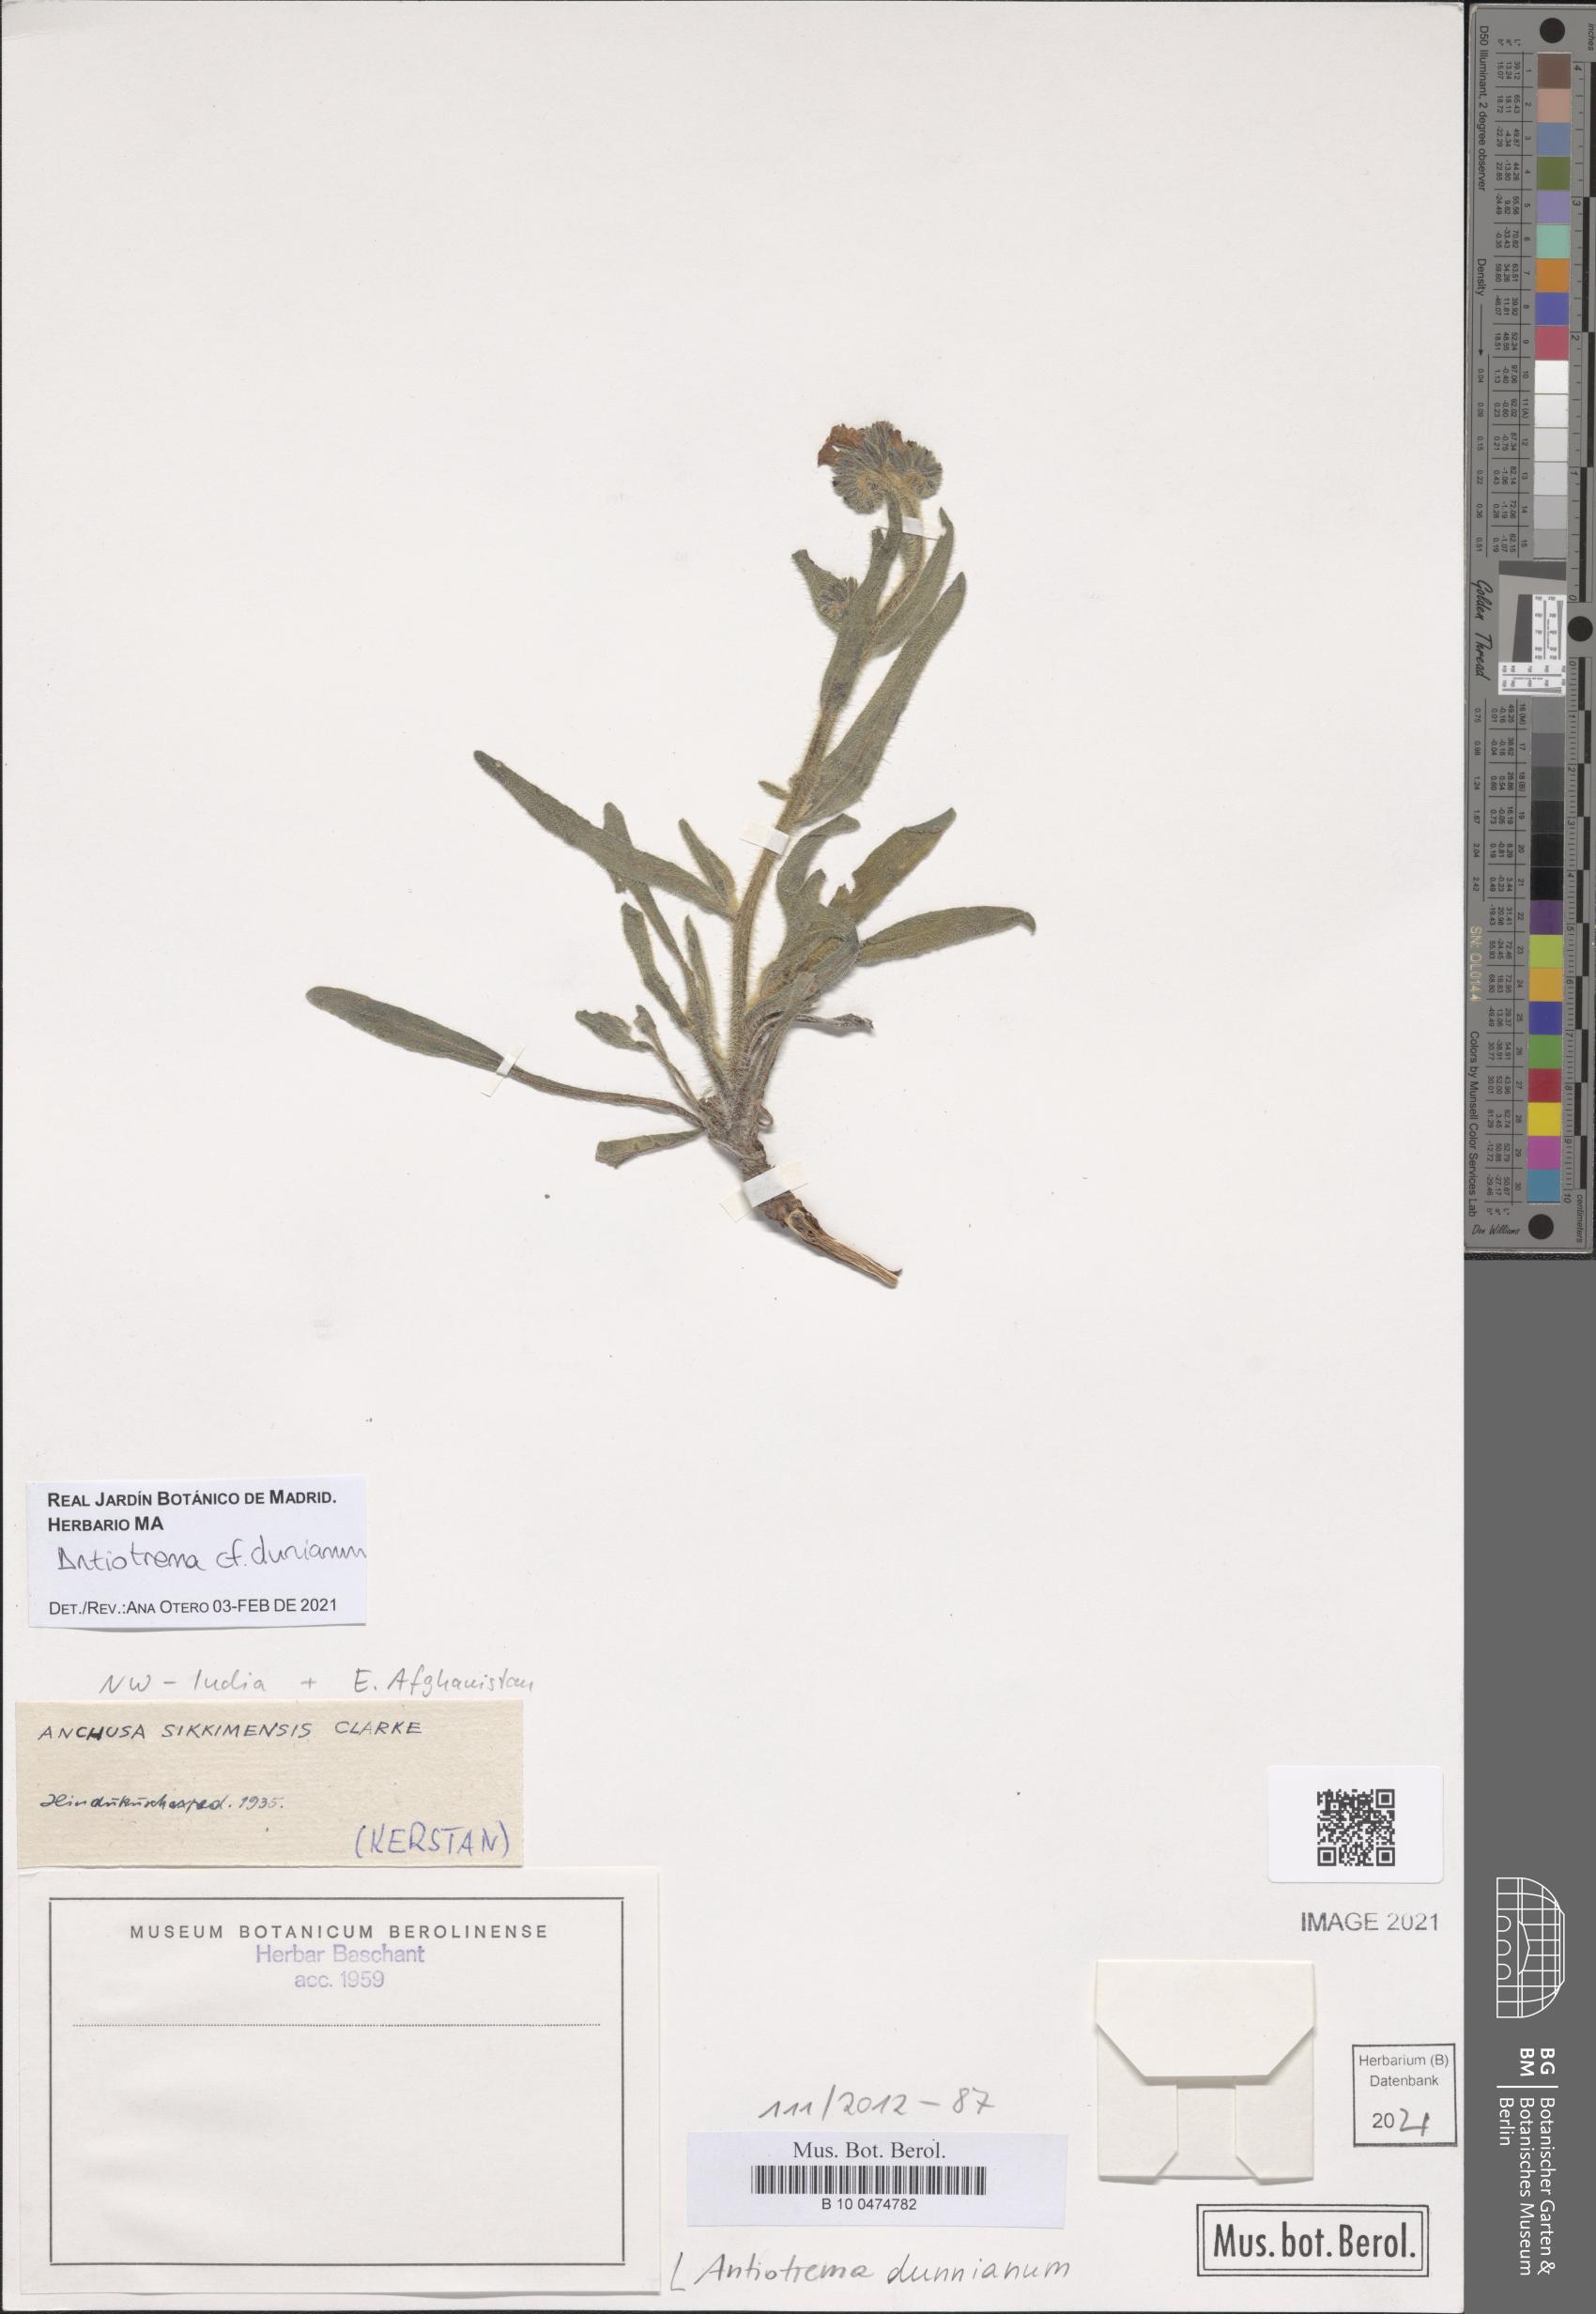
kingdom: Plantae
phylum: Tracheophyta
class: Magnoliopsida
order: Boraginales
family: Boraginaceae
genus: Antiotrema
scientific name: Antiotrema dunnianum
